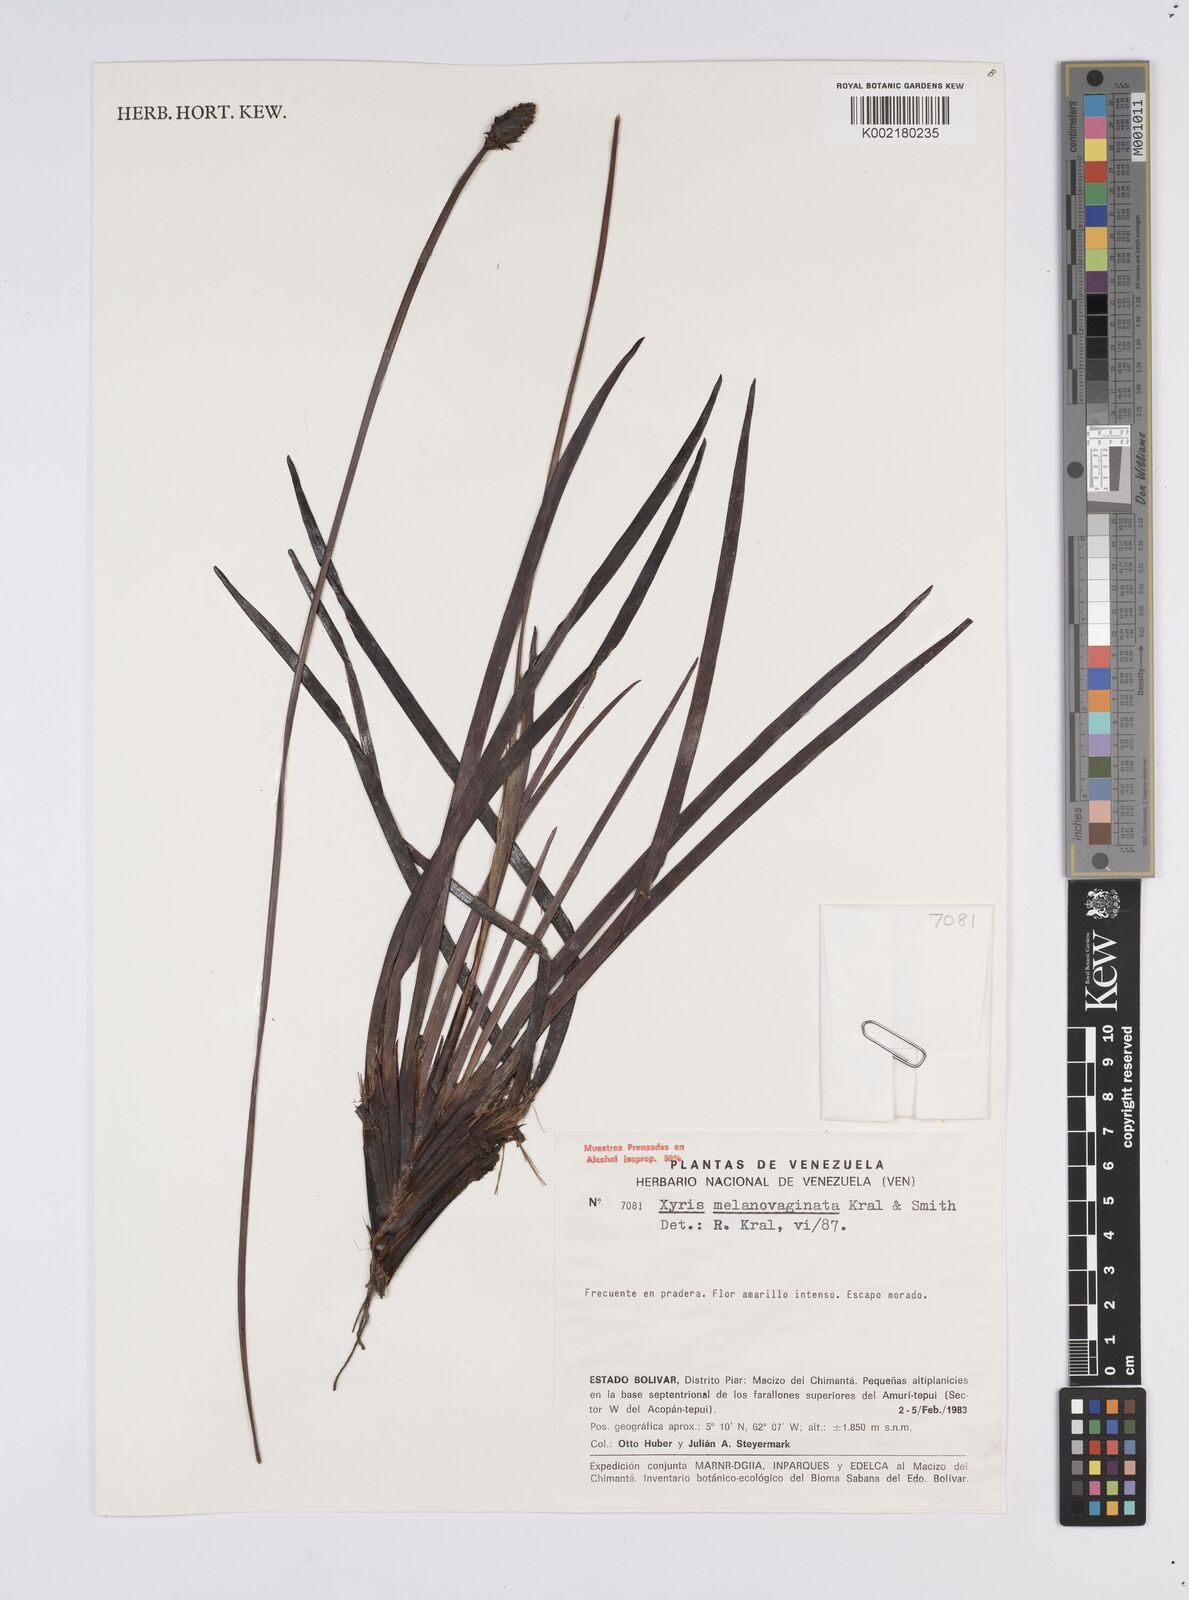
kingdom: Plantae
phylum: Tracheophyta
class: Liliopsida
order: Poales
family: Xyridaceae
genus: Xyris
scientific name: Xyris melanovaginata
